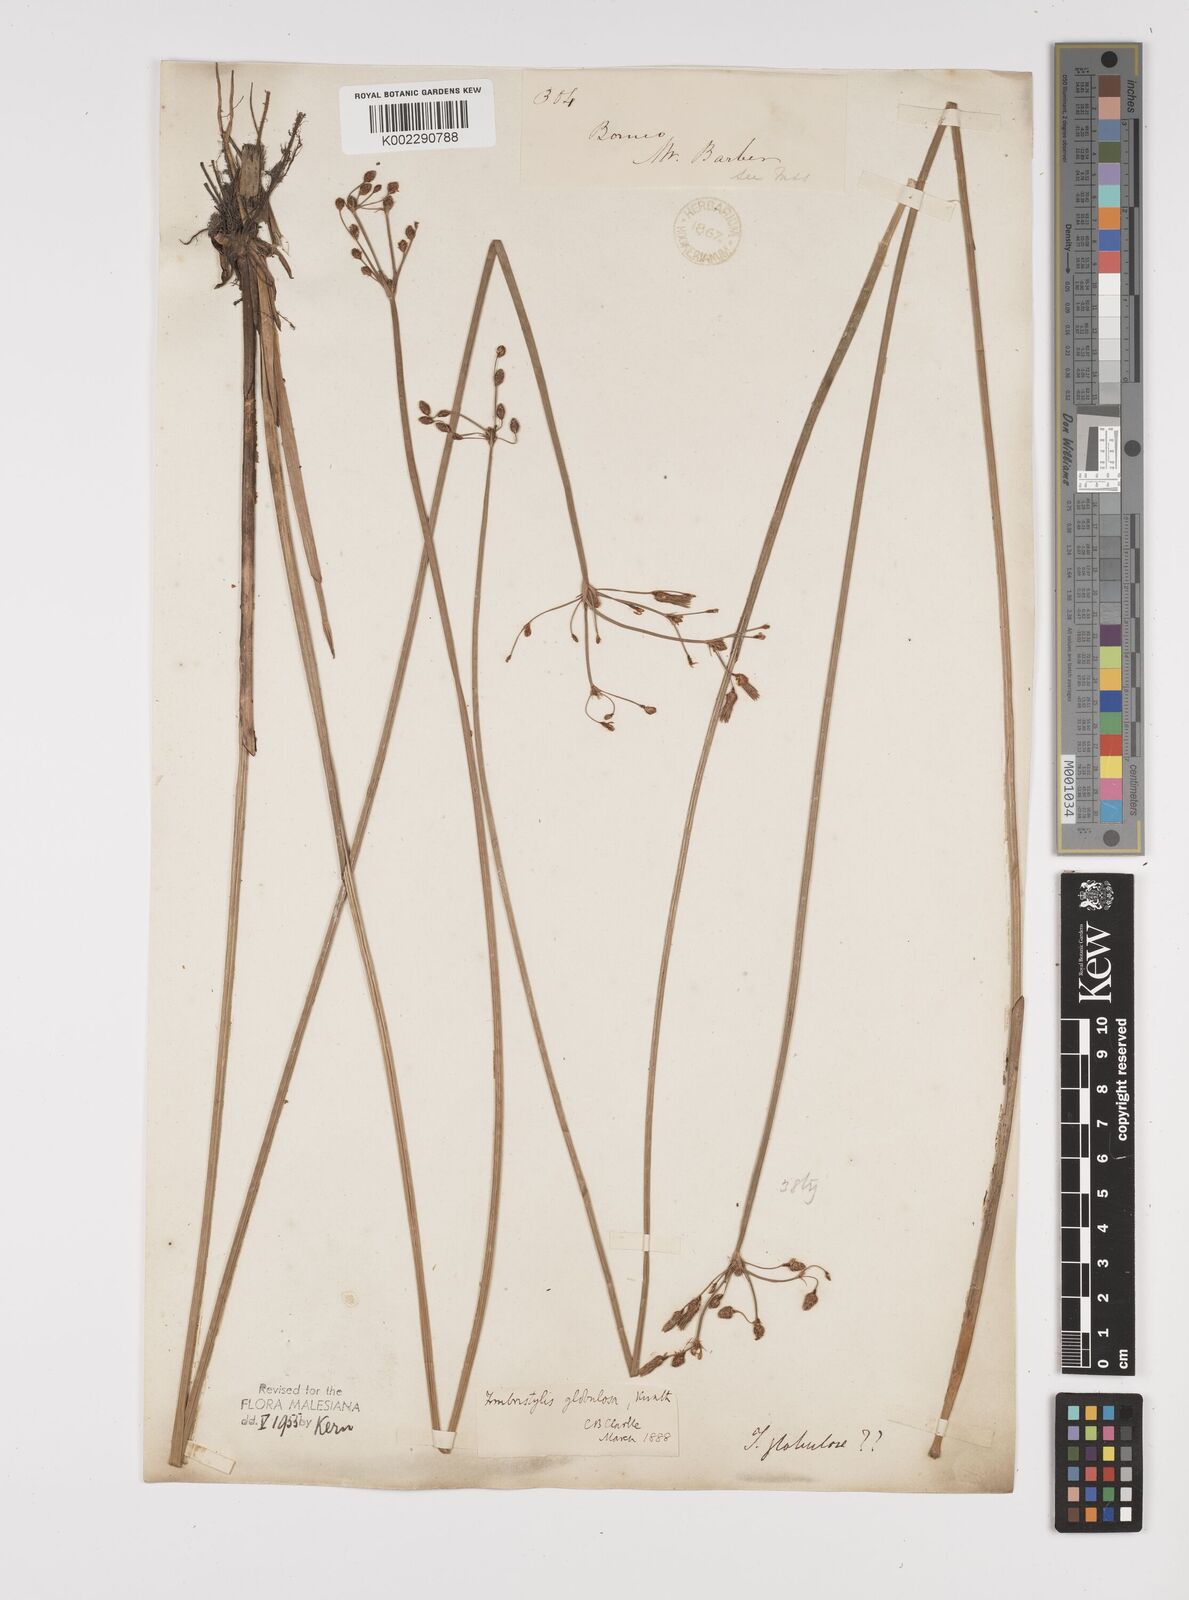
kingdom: Plantae
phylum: Tracheophyta
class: Liliopsida
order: Poales
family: Cyperaceae
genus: Fimbristylis
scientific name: Fimbristylis umbellaris
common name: Globular fimbristylis
